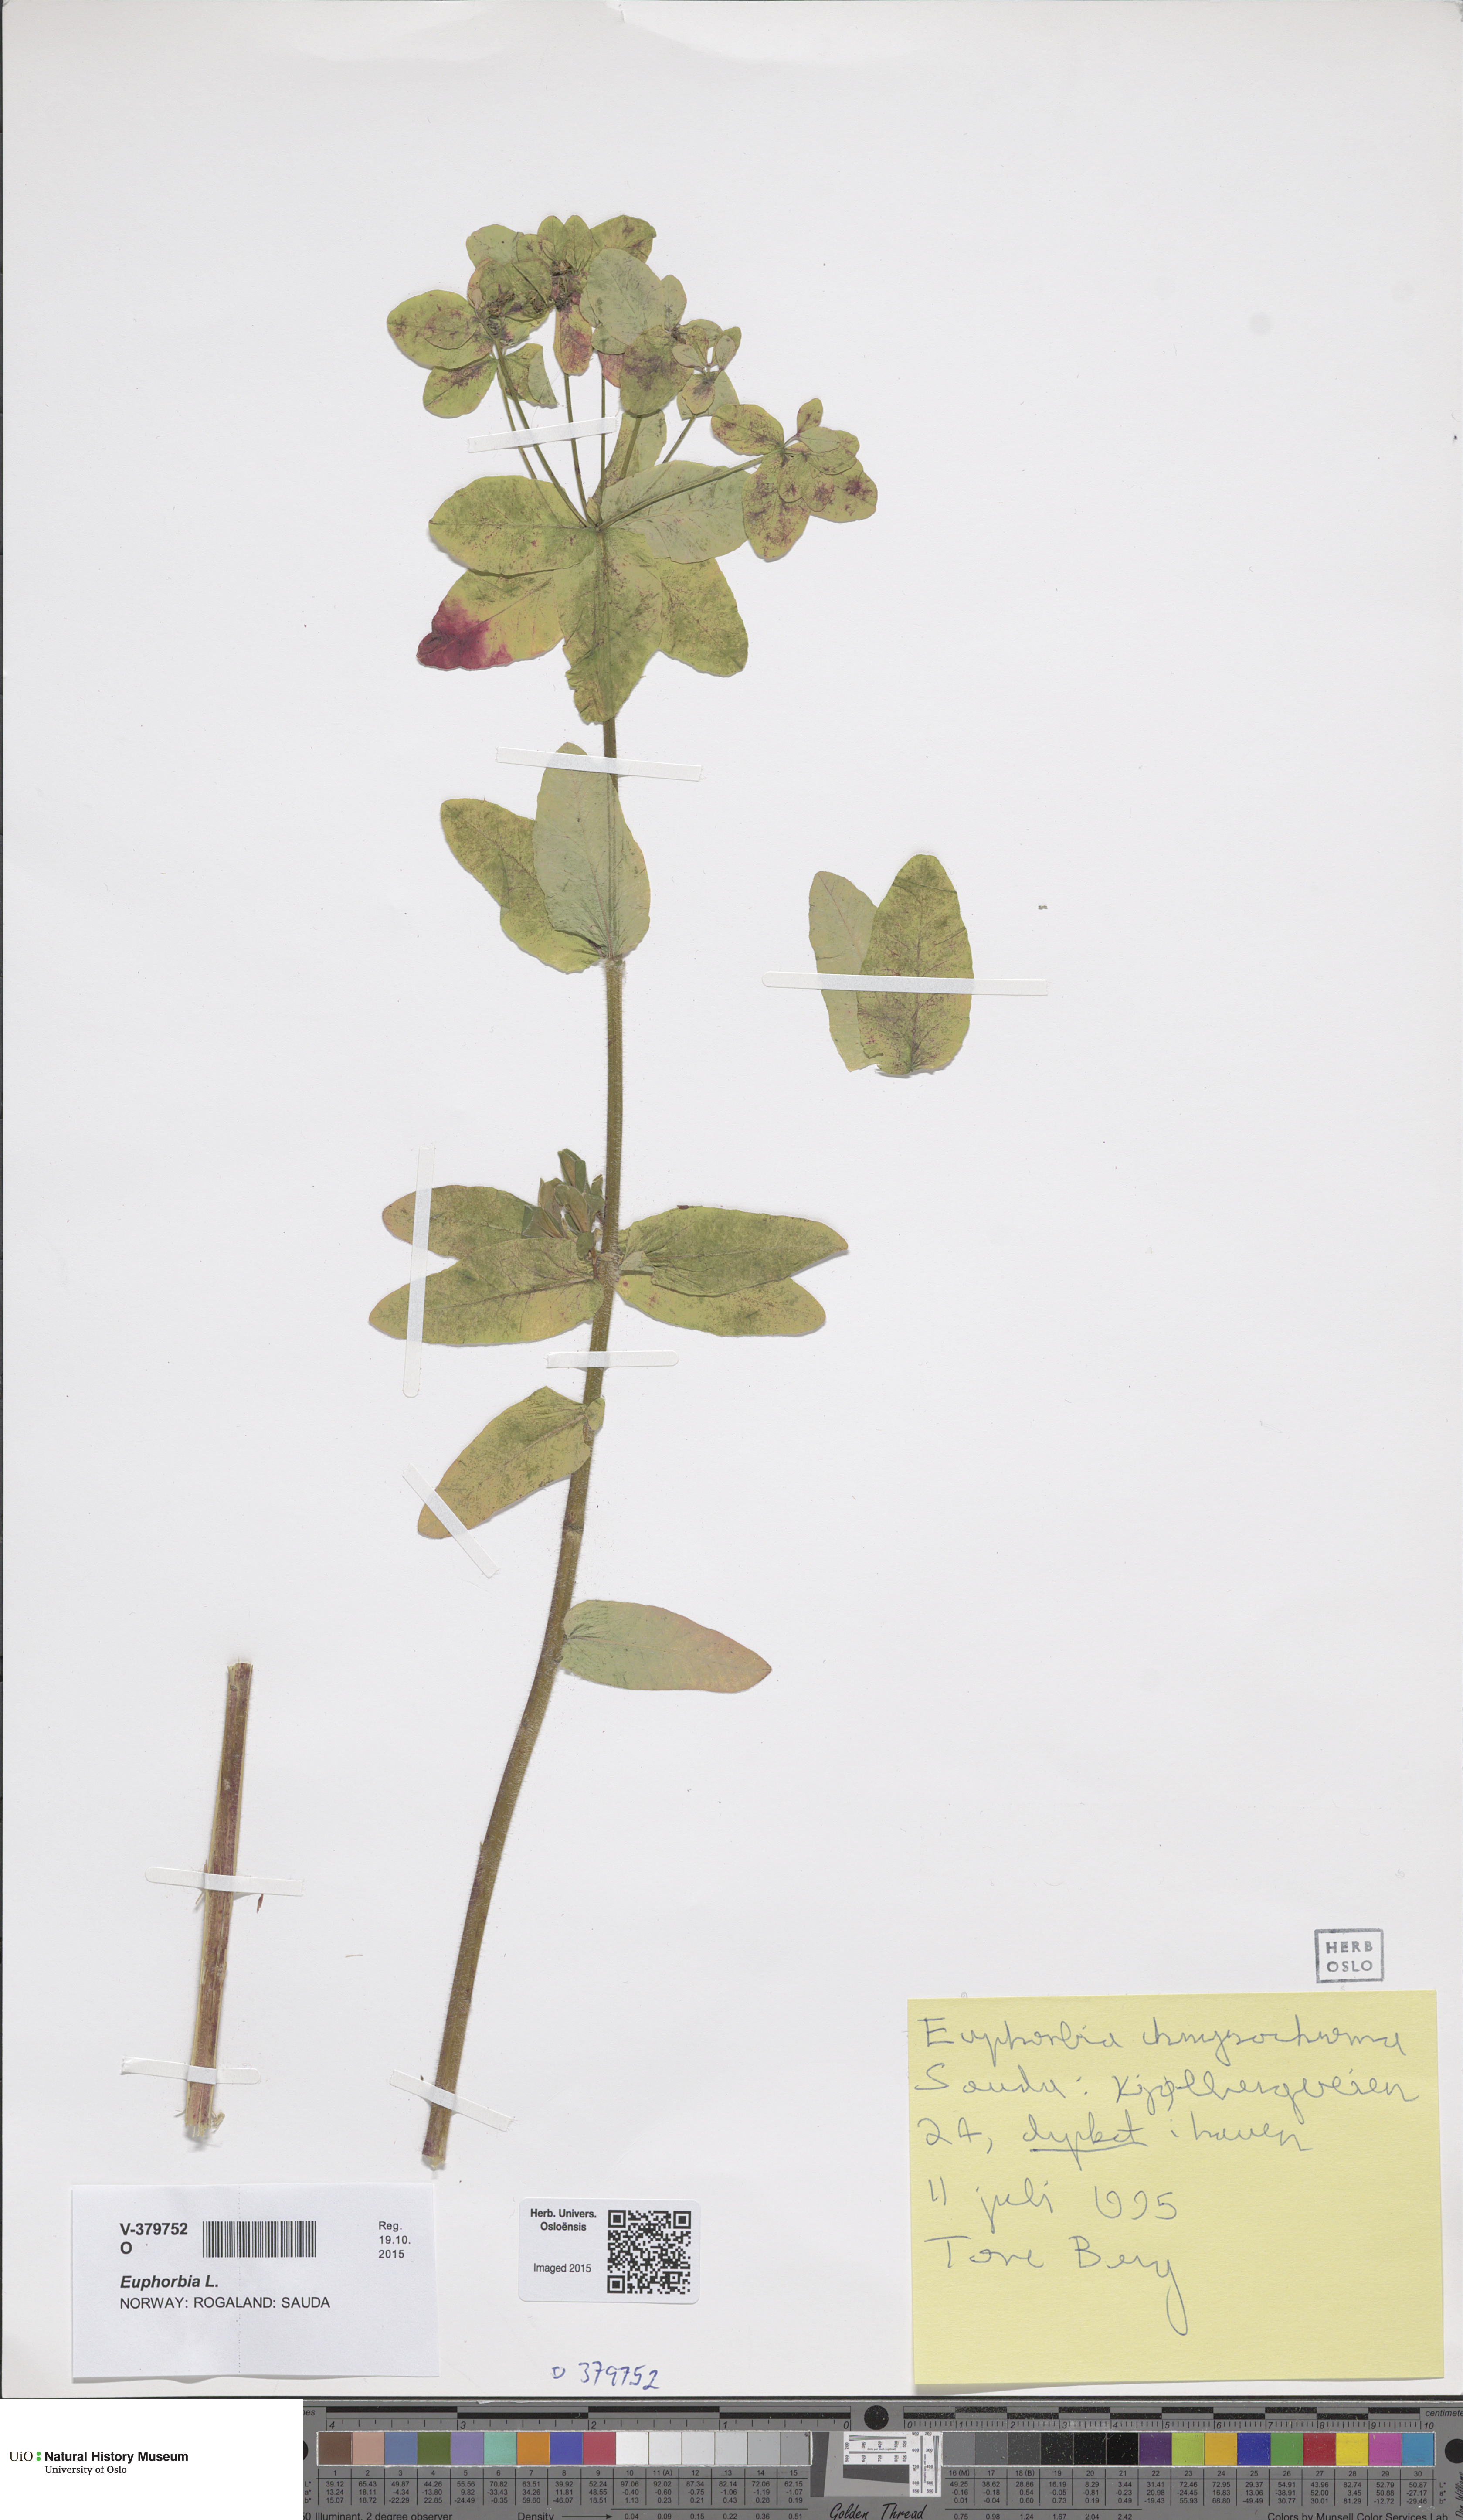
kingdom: Plantae
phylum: Tracheophyta
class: Magnoliopsida
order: Malpighiales
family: Euphorbiaceae
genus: Euphorbia
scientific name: Euphorbia epithymoides
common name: Cushion spurge
